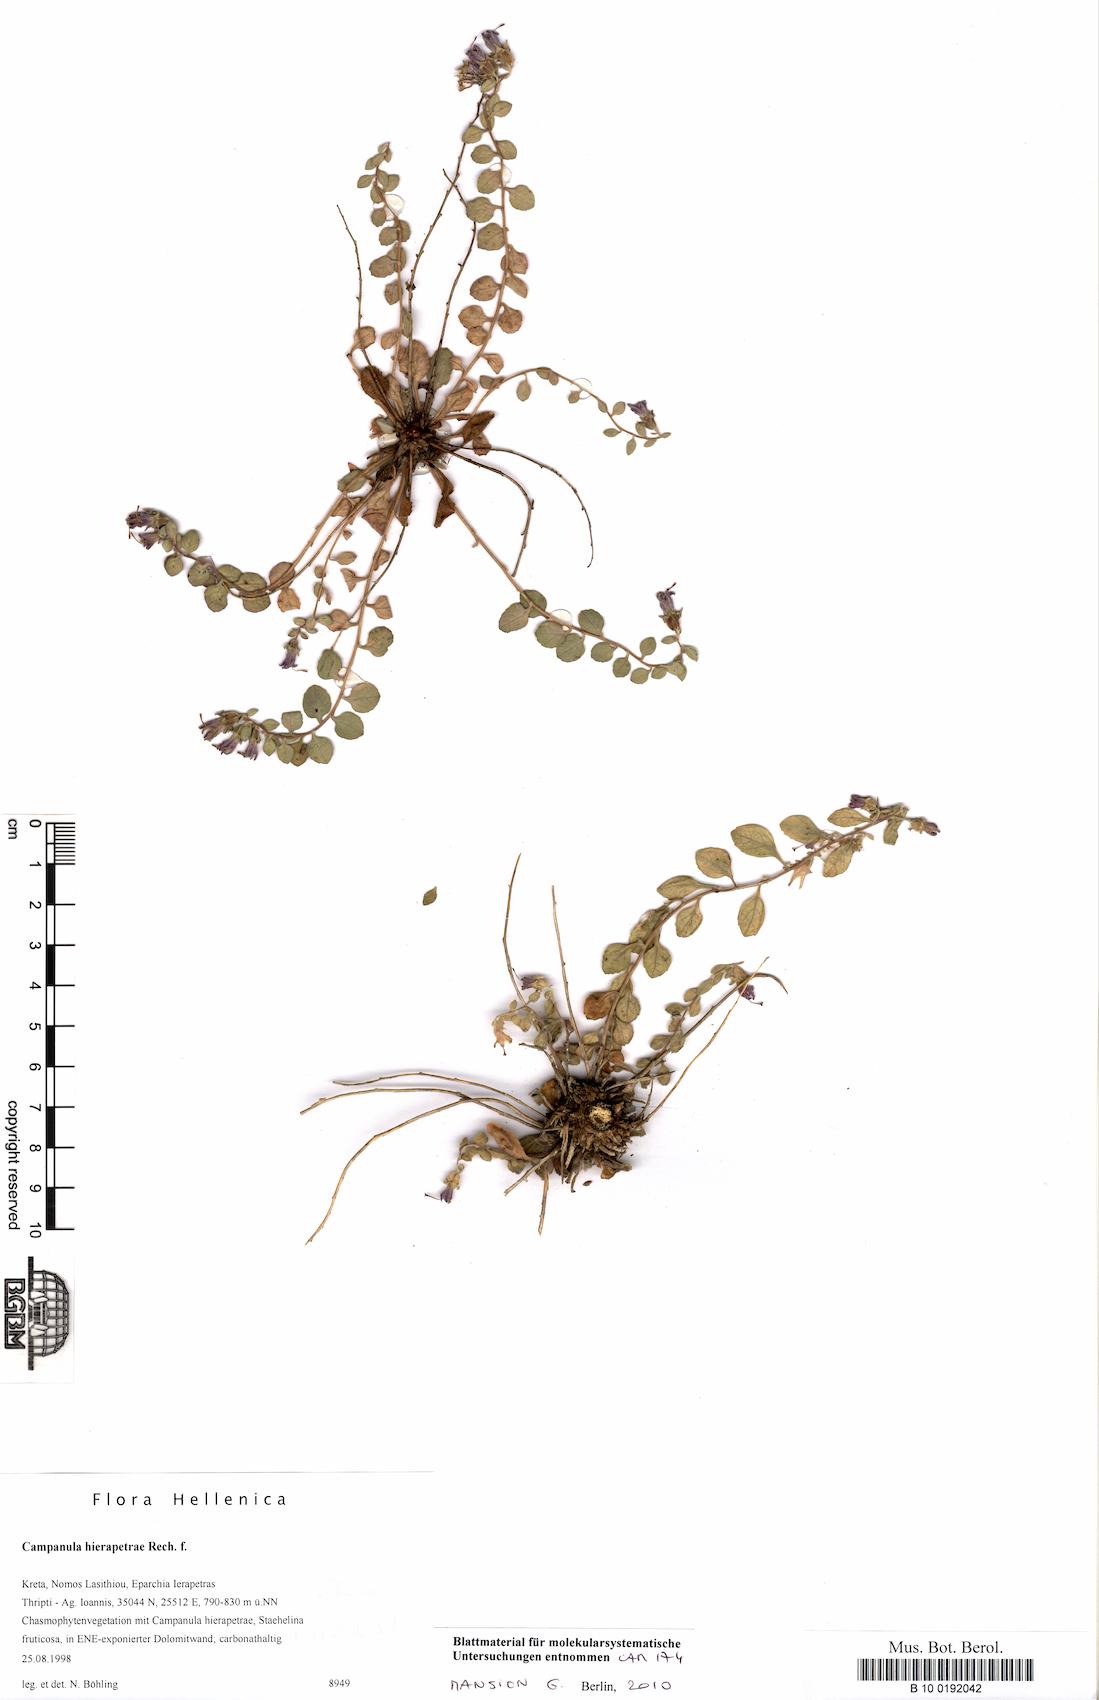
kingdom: Plantae
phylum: Tracheophyta
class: Magnoliopsida
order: Asterales
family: Campanulaceae
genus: Campanula
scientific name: Campanula hierapetrae
